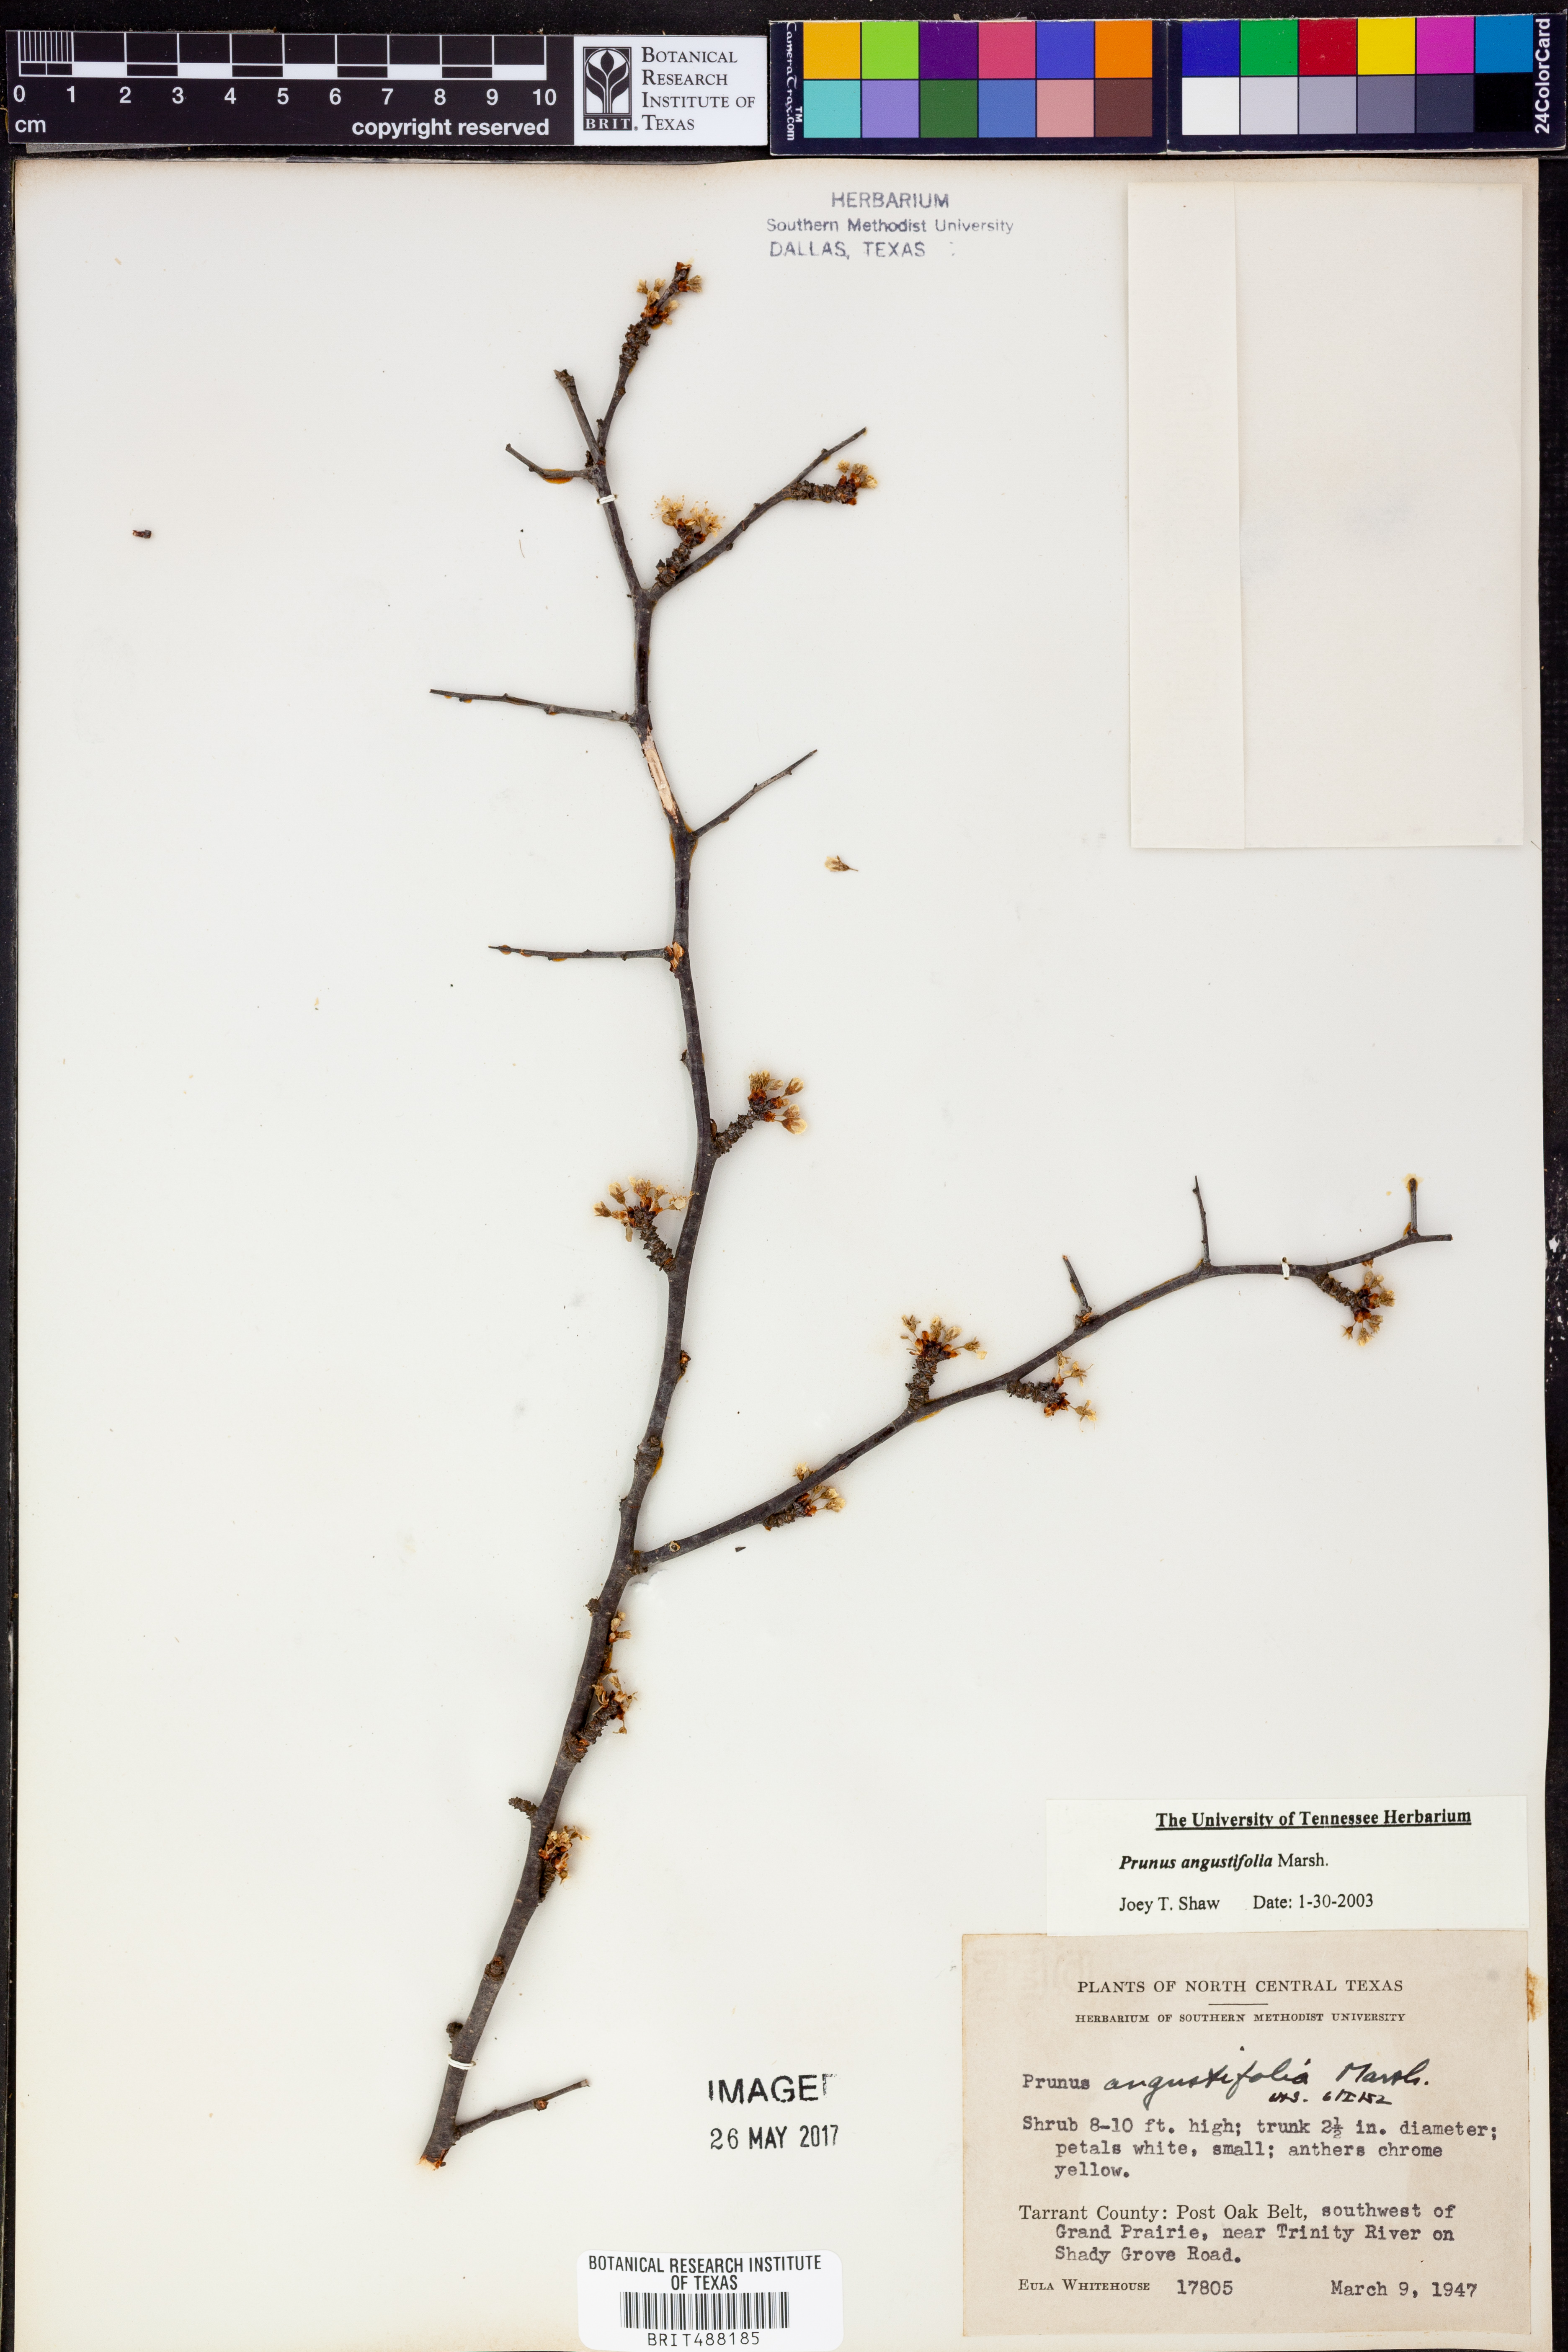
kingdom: Plantae
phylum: Tracheophyta
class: Magnoliopsida
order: Rosales
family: Rosaceae
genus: Prunus
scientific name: Prunus angustifolia
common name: Cherokee plum
